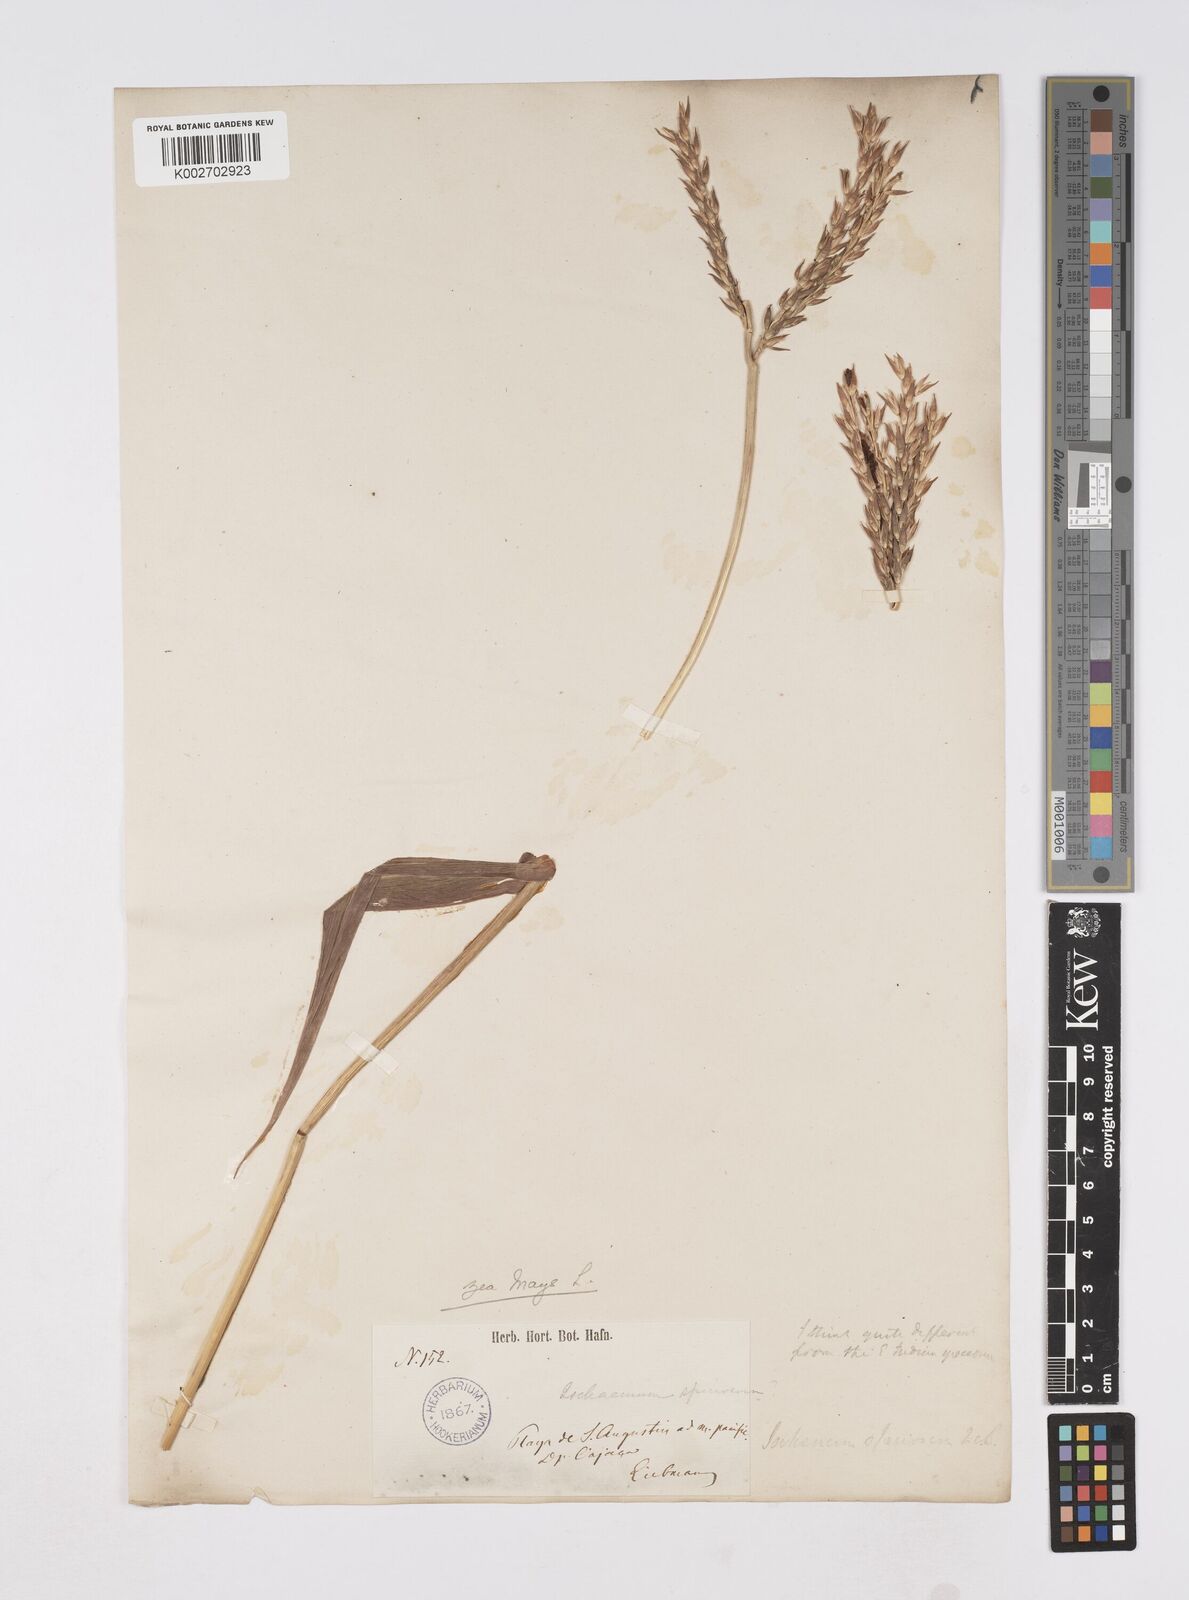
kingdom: Plantae
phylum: Tracheophyta
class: Liliopsida
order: Poales
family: Poaceae
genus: Zea
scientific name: Zea mays
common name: Maize
